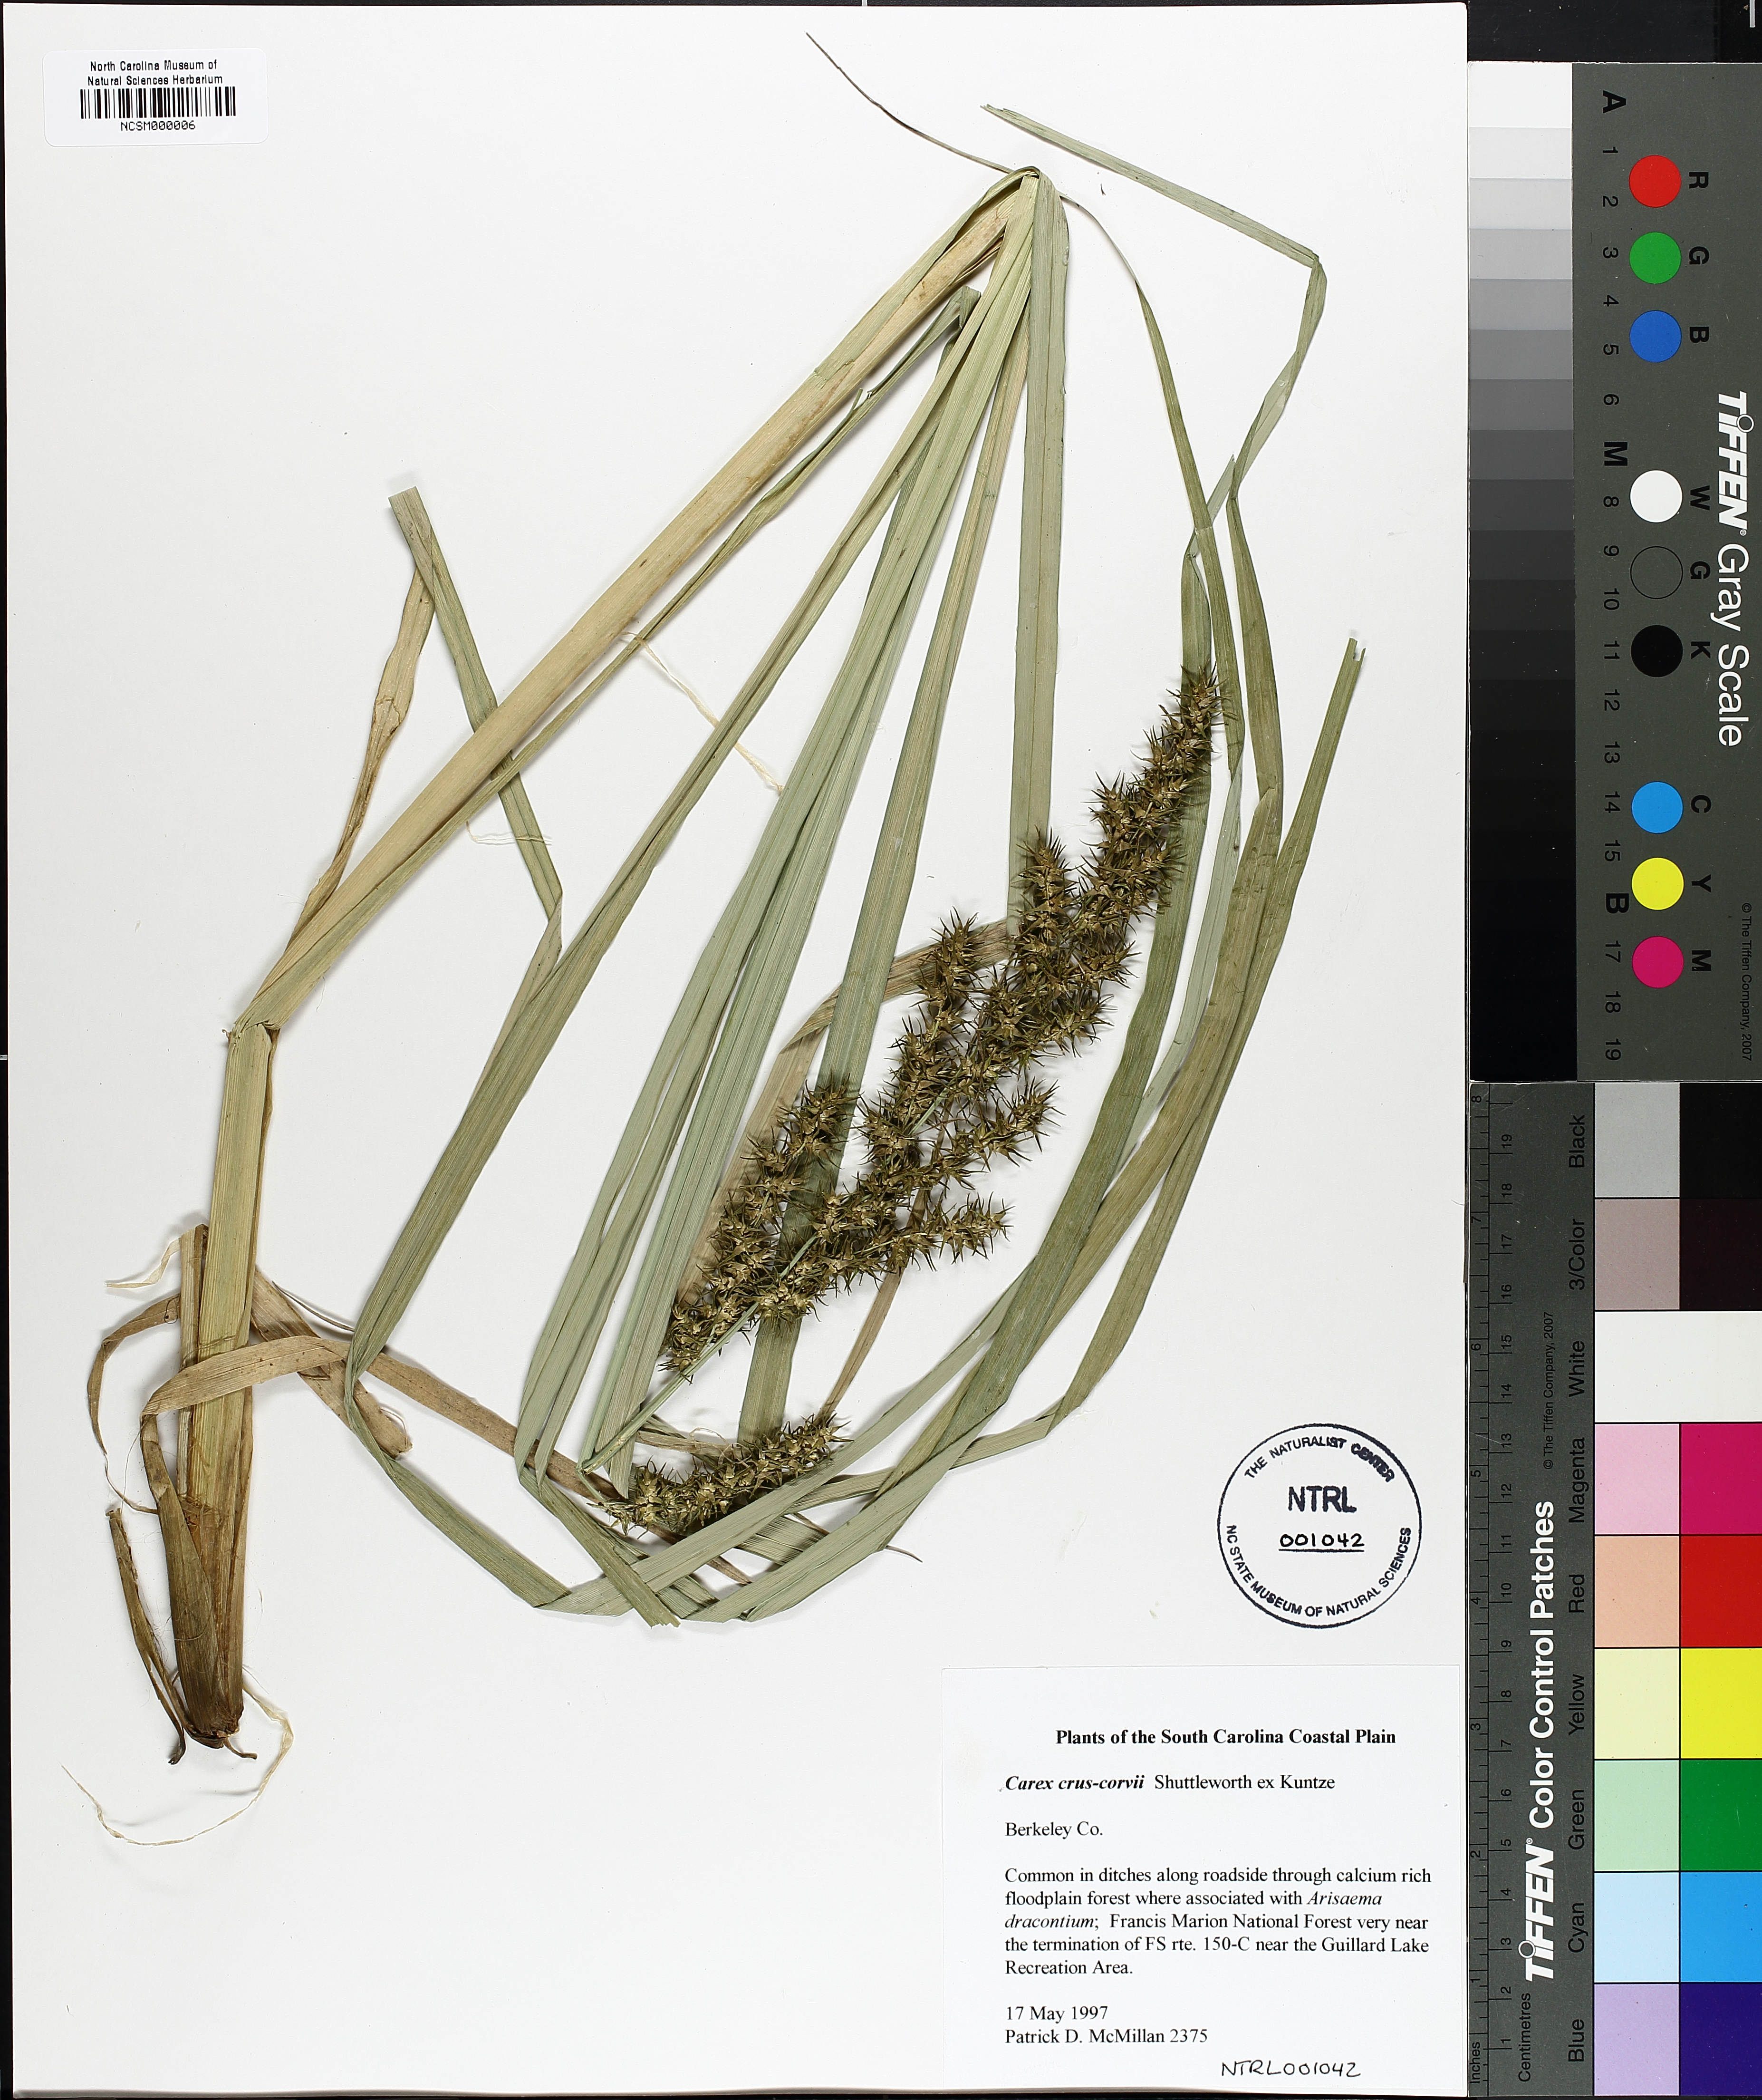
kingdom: Plantae
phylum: Tracheophyta
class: Liliopsida
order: Poales
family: Cyperaceae
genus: Carex
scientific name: Carex crus-corvi
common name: Crow-spur sedge
